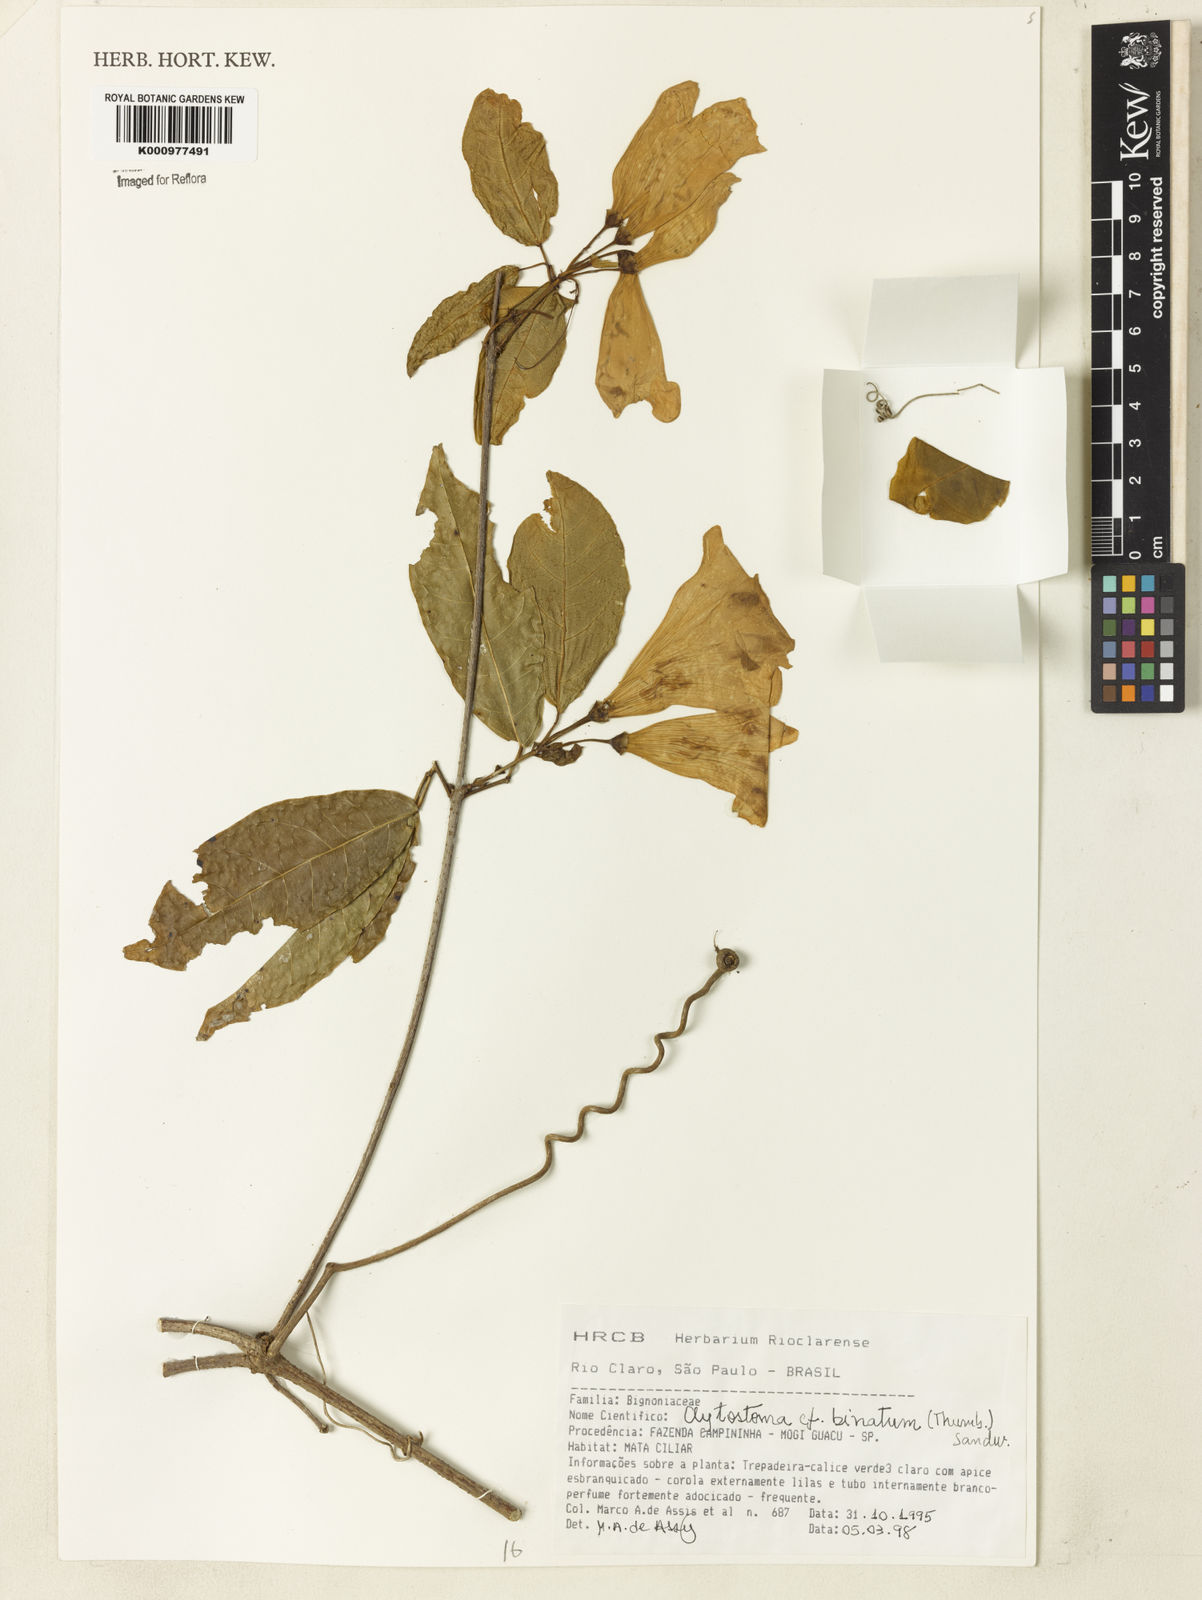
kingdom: Plantae
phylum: Tracheophyta
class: Magnoliopsida
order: Lamiales
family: Bignoniaceae
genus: Bignonia
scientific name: Bignonia binata
